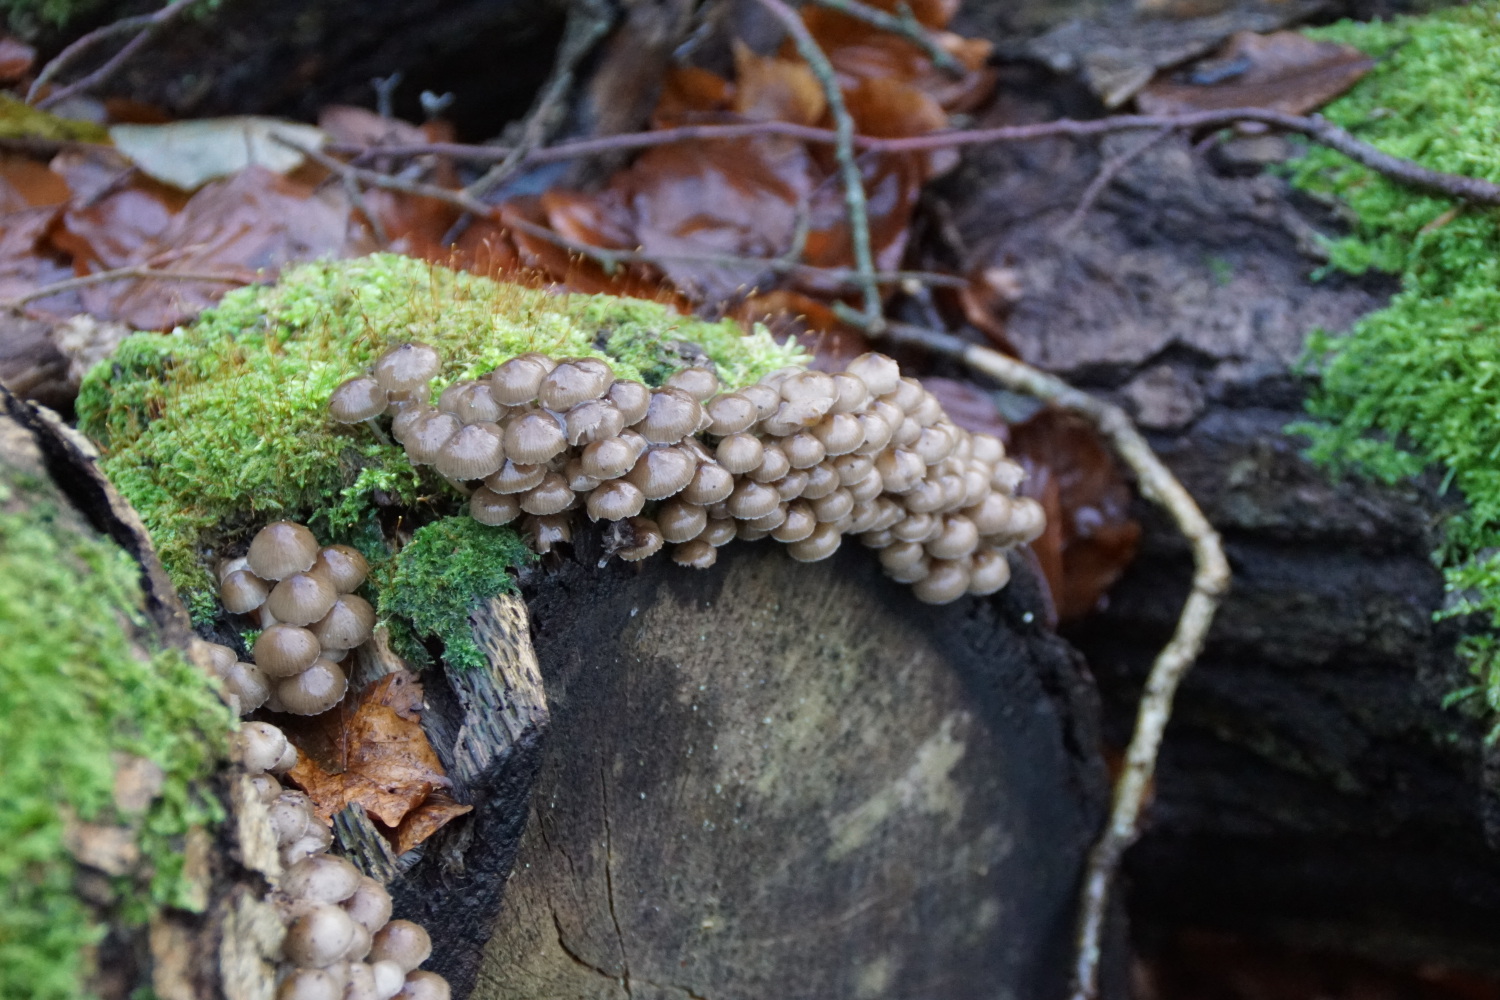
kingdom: Fungi
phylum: Basidiomycota
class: Agaricomycetes
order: Agaricales
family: Mycenaceae
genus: Mycena
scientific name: Mycena tintinnabulum
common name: vinter-huesvamp
